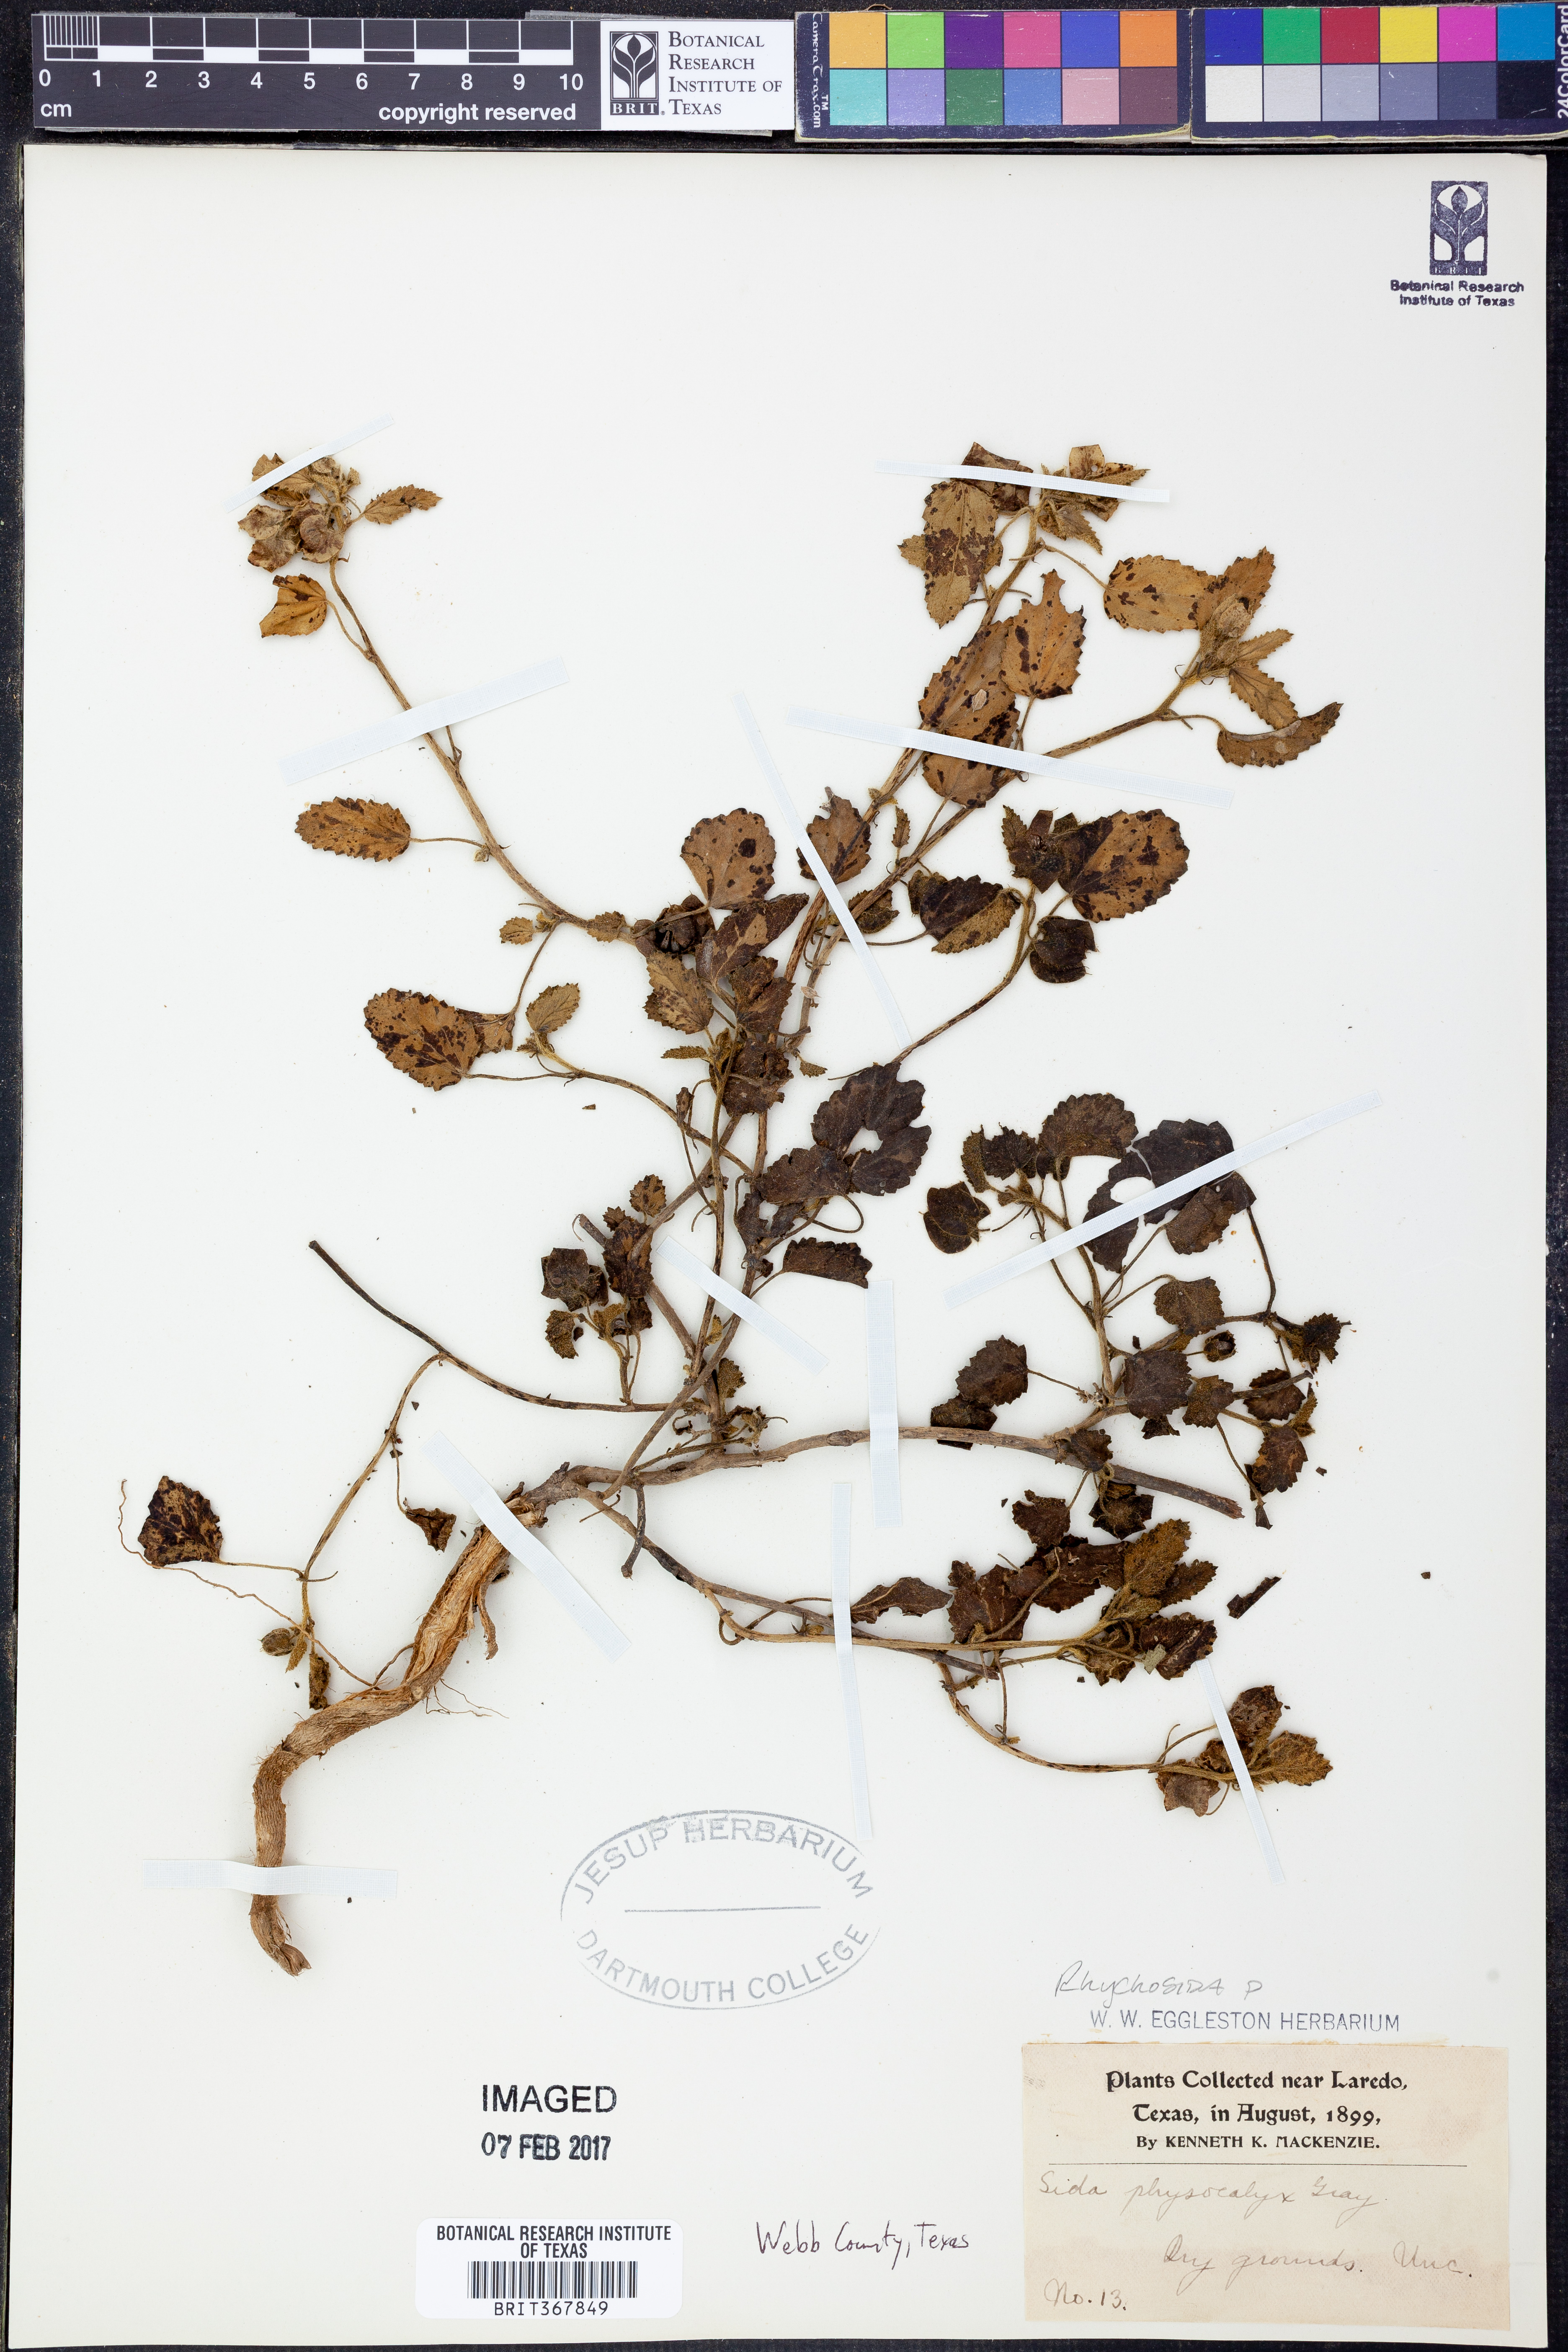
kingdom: Plantae
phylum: Tracheophyta
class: Magnoliopsida
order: Malvales
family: Malvaceae
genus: Rhynchosida
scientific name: Rhynchosida physocalyx
